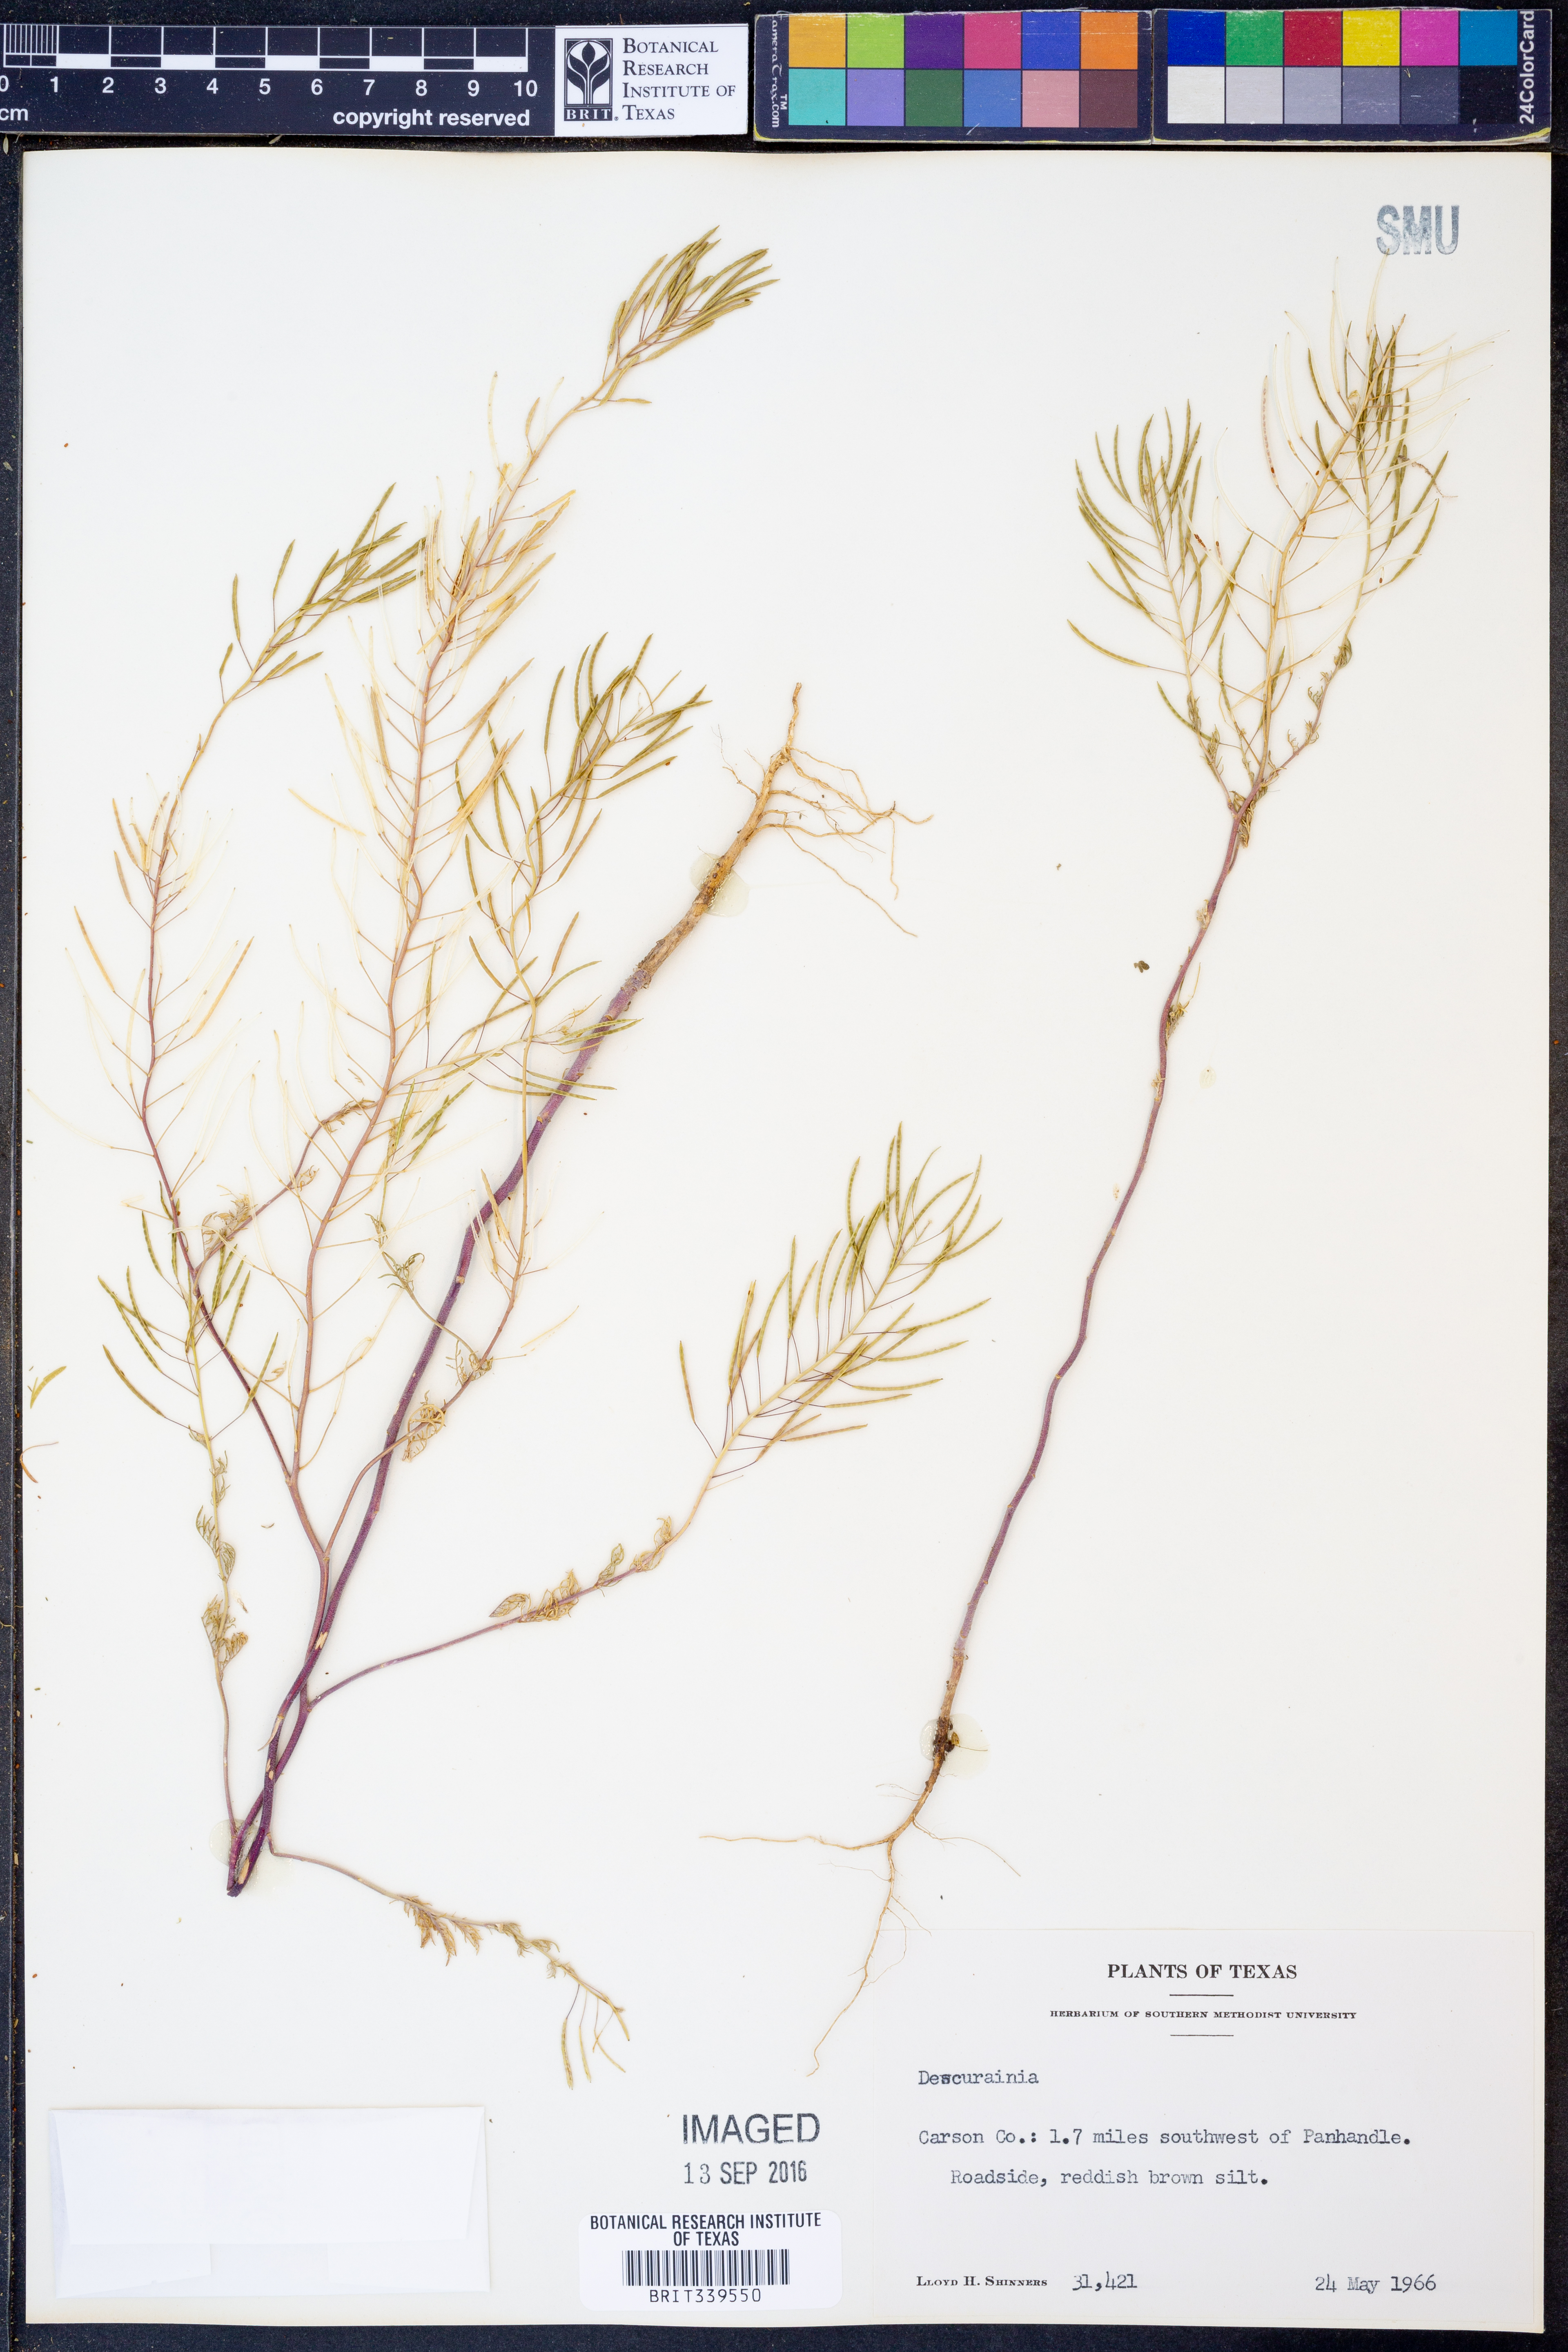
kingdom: Plantae
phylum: Tracheophyta
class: Magnoliopsida
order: Brassicales
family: Brassicaceae
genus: Descurainia
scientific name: Descurainia
